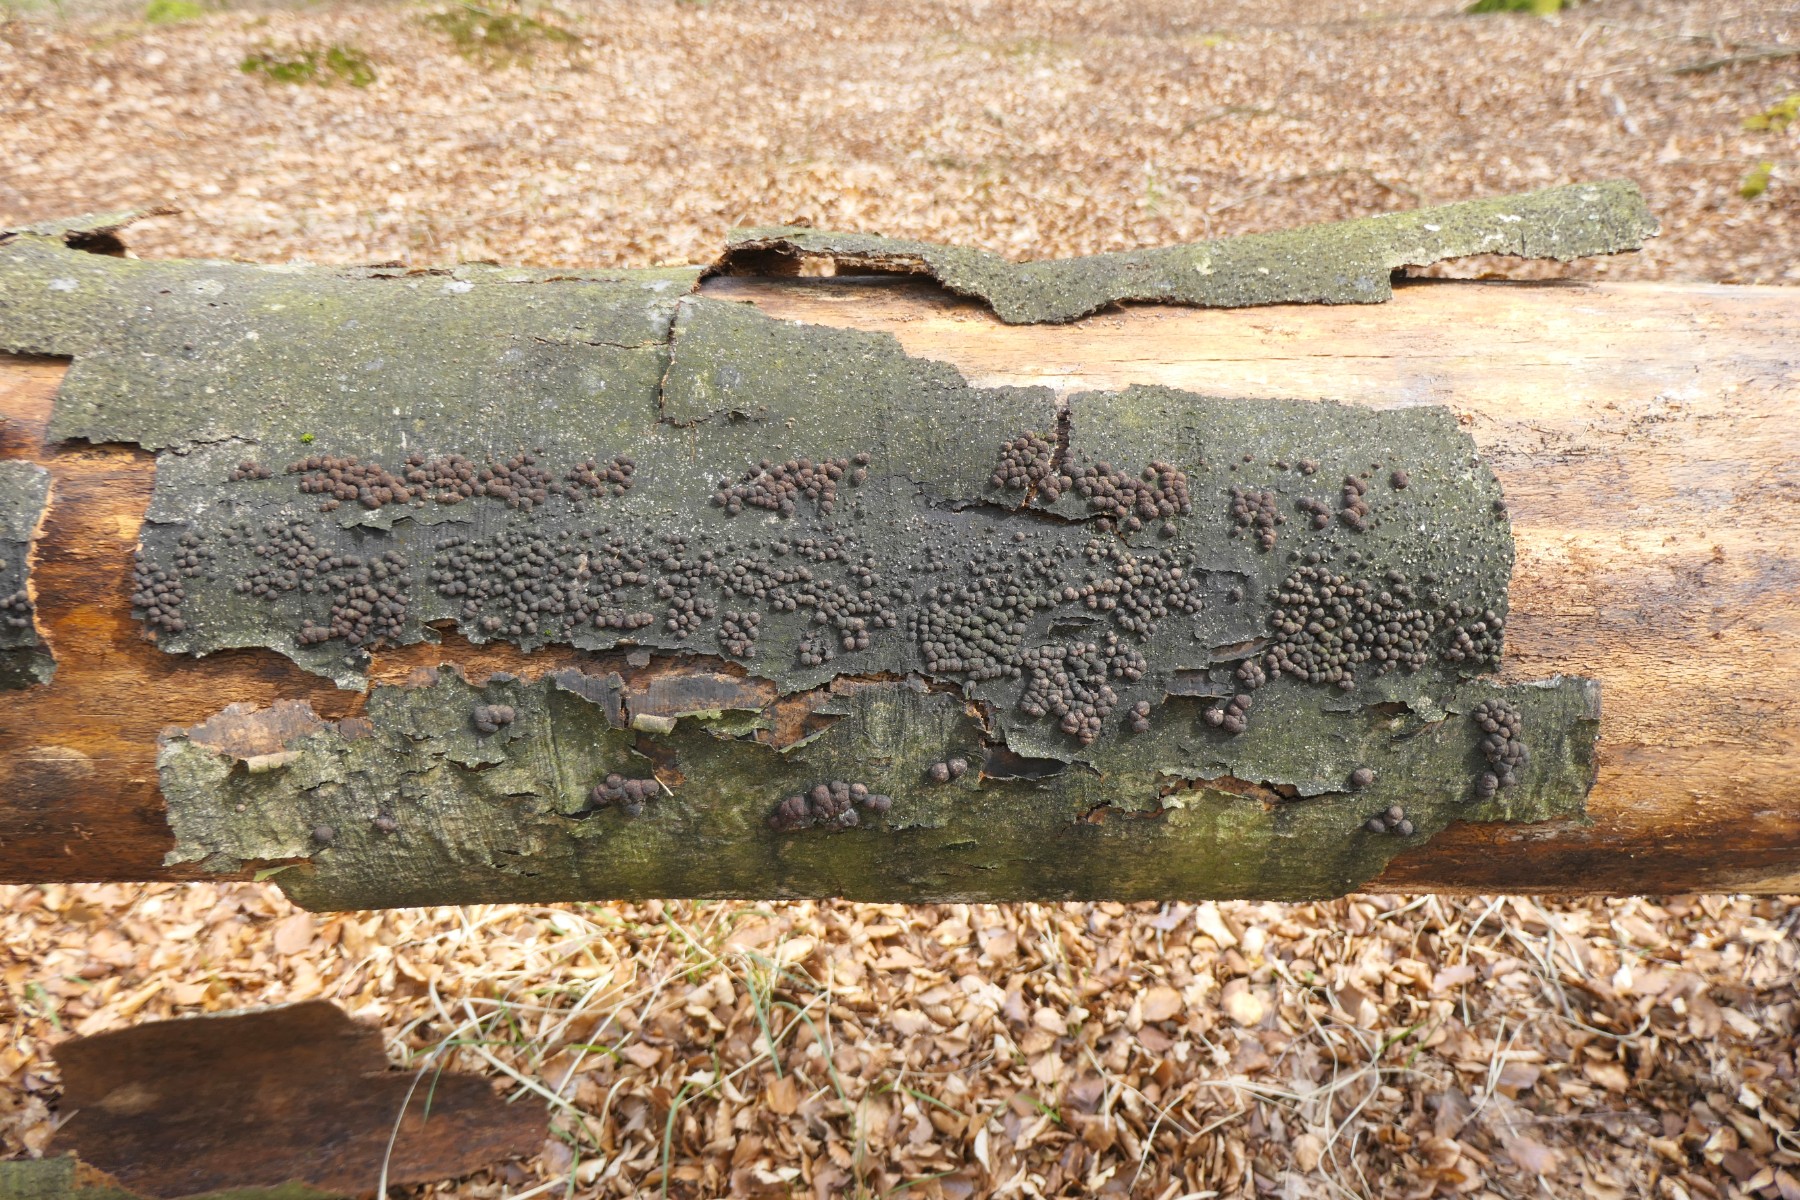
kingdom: Fungi
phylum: Ascomycota
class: Sordariomycetes
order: Xylariales
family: Hypoxylaceae
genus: Hypoxylon
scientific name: Hypoxylon fragiforme
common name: kuljordbær
